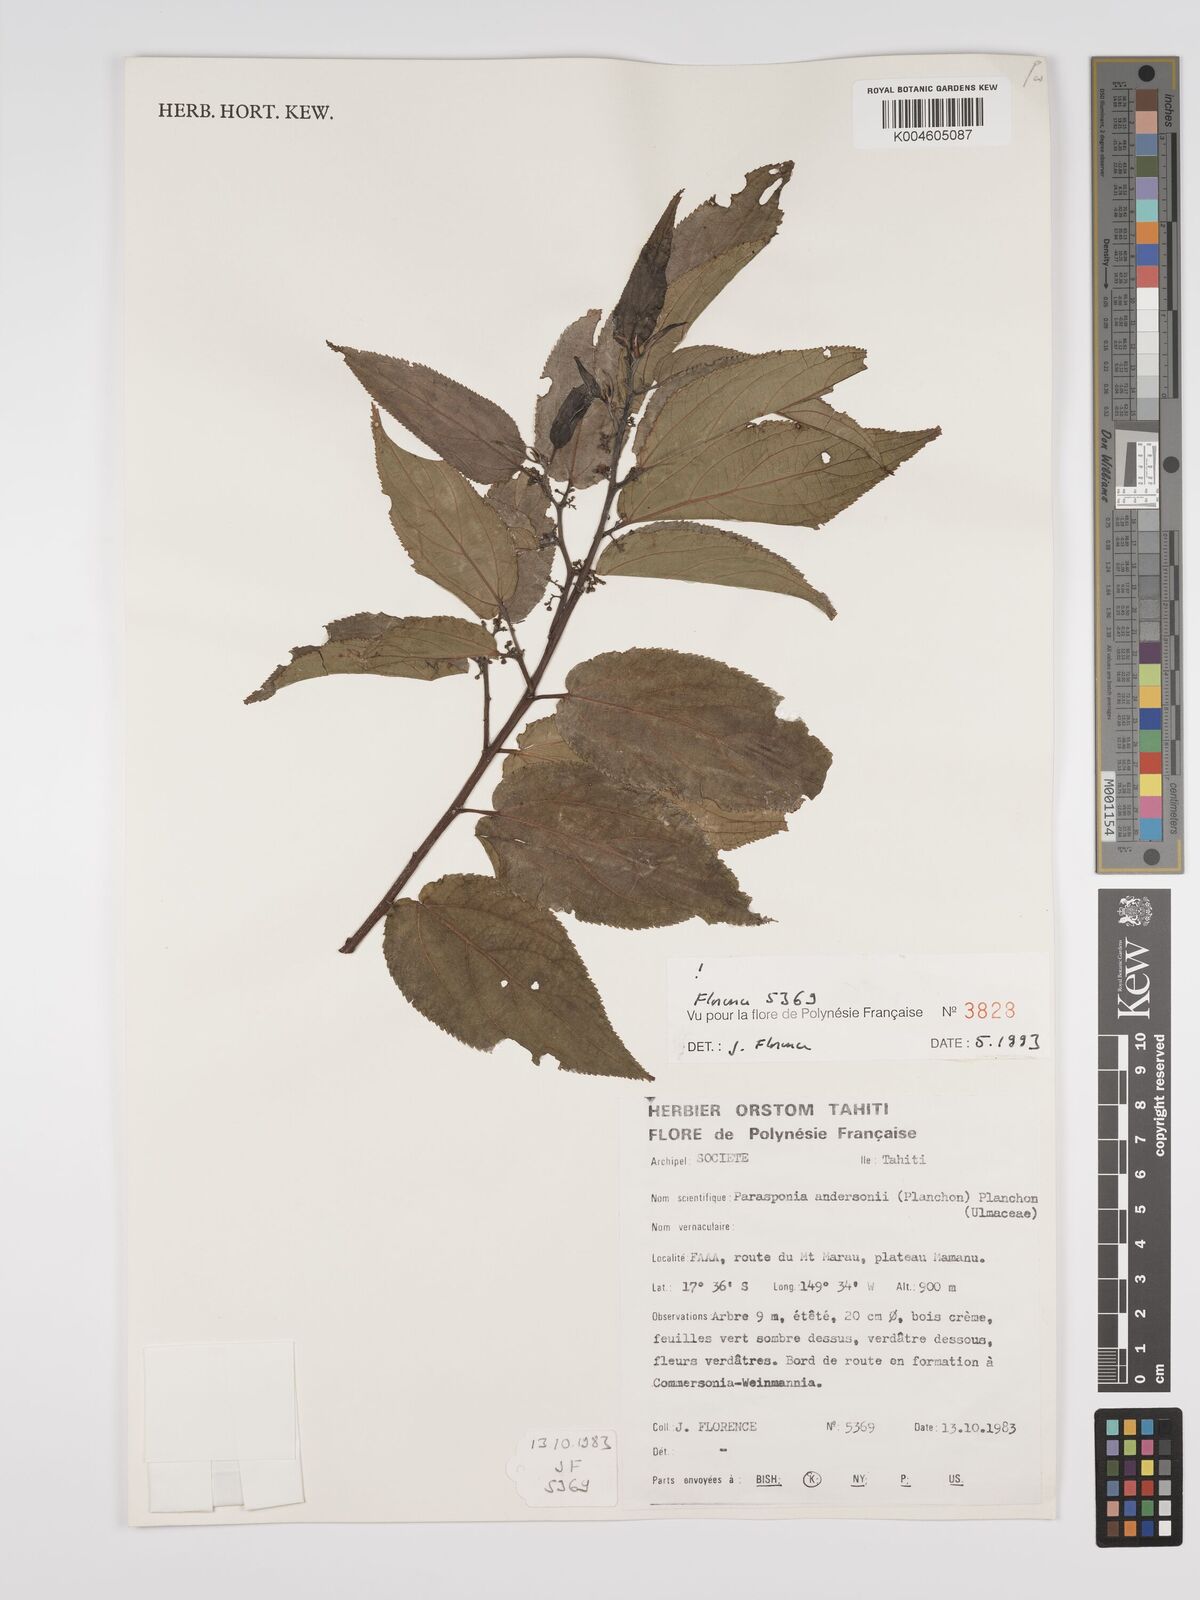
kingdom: Plantae
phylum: Tracheophyta
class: Magnoliopsida
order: Rosales
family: Cannabaceae
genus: Trema
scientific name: Trema andersonii
